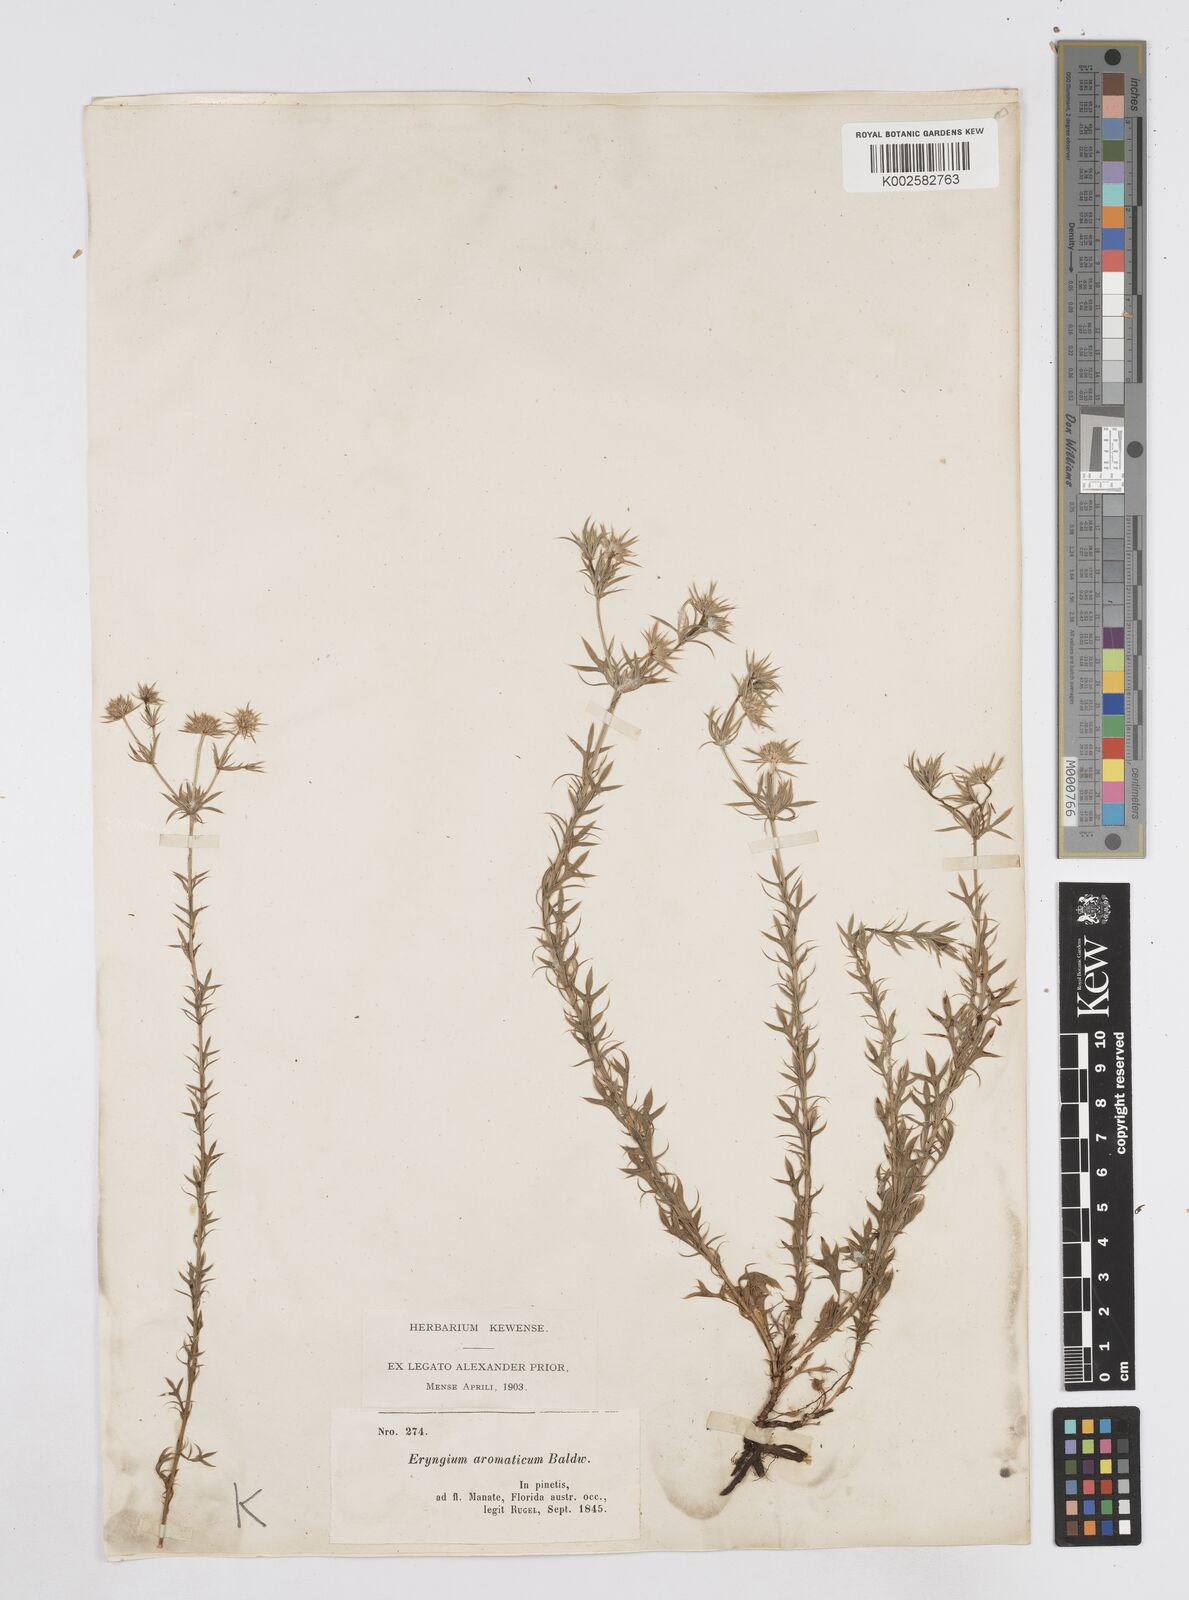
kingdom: Plantae
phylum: Tracheophyta
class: Magnoliopsida
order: Apiales
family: Apiaceae
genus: Eryngium
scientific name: Eryngium aromaticum
